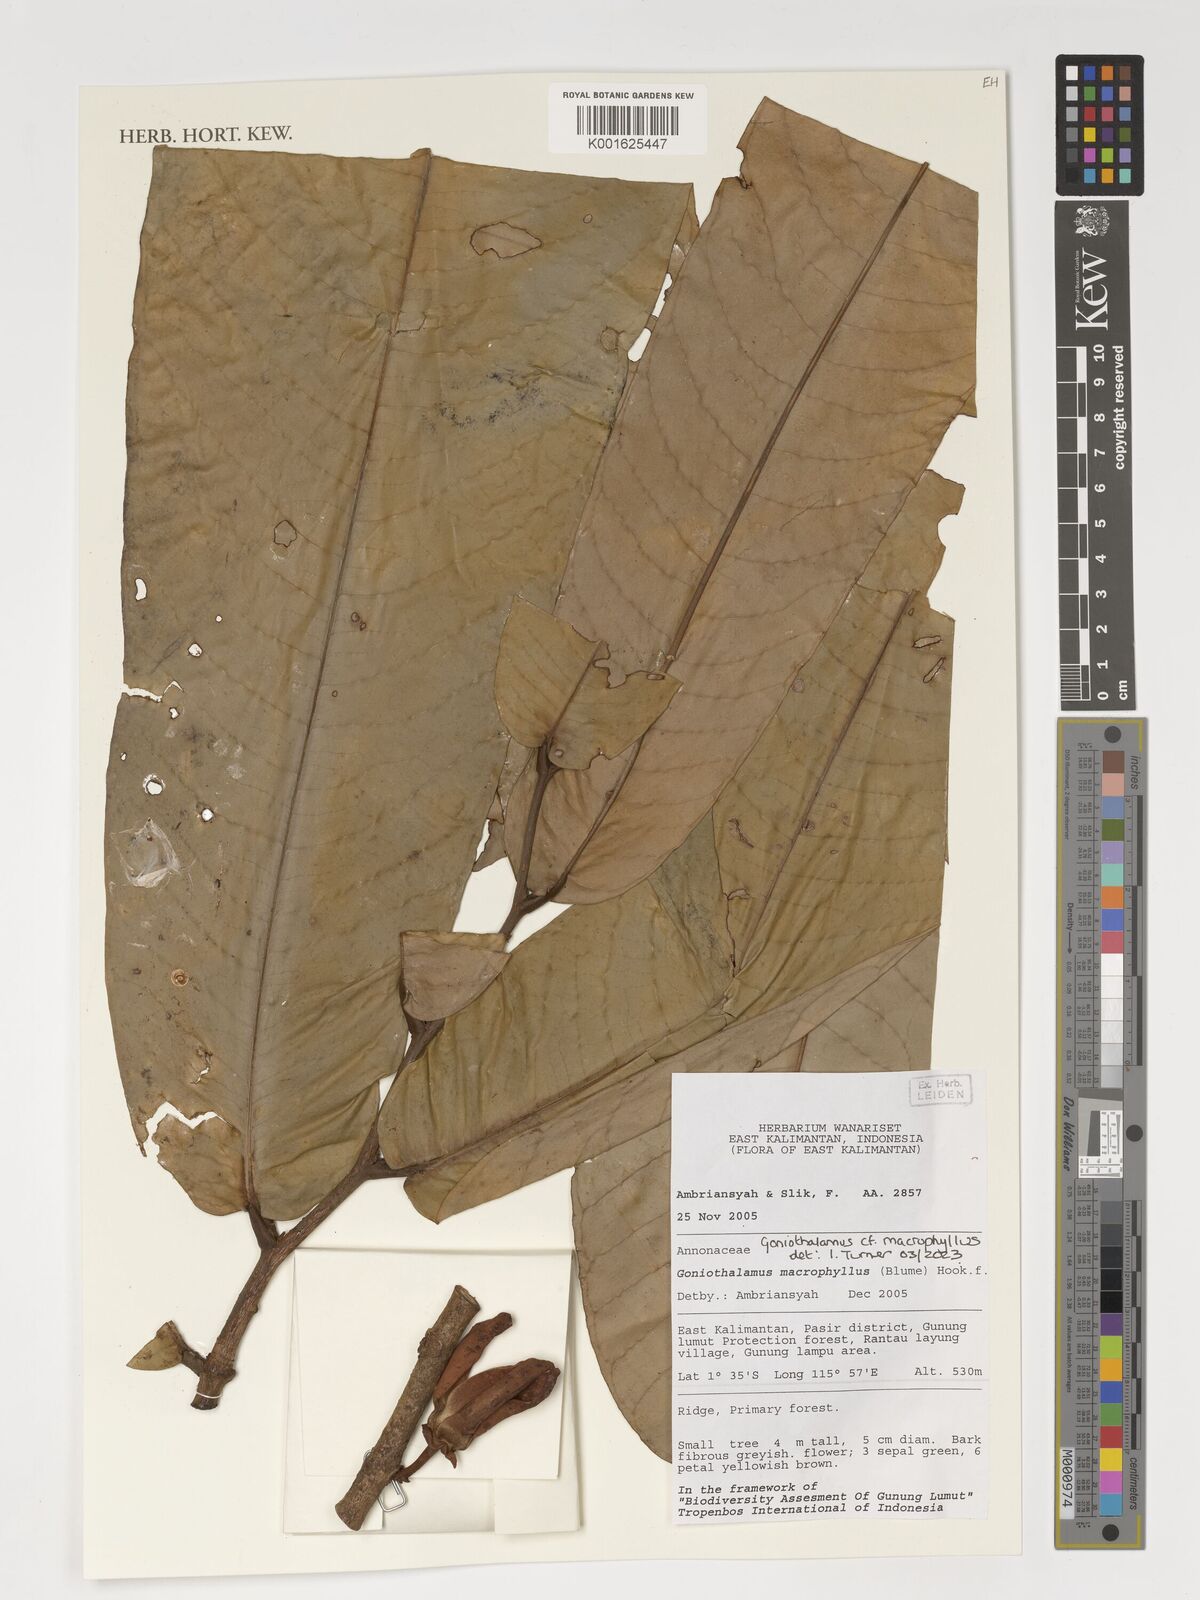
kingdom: Plantae
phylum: Tracheophyta
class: Magnoliopsida
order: Magnoliales
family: Annonaceae
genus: Goniothalamus
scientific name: Goniothalamus macrophyllus
